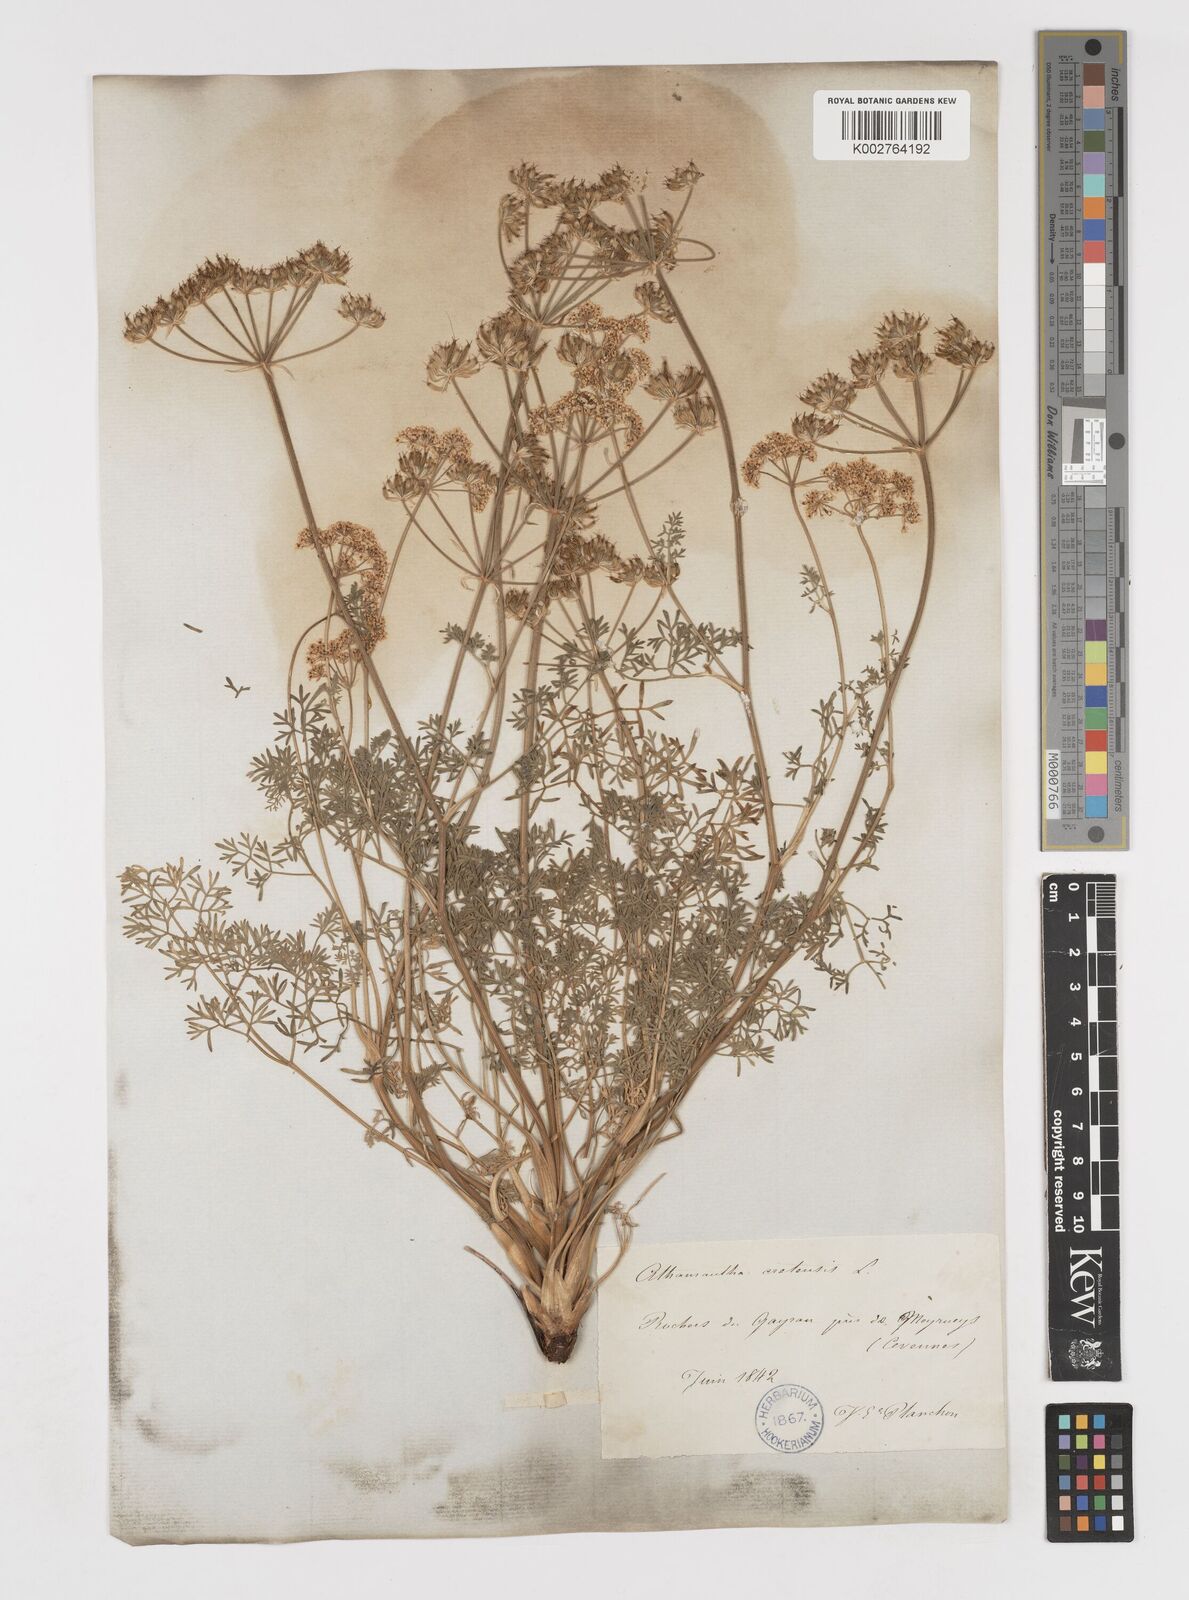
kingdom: Plantae
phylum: Tracheophyta
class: Magnoliopsida
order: Apiales
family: Apiaceae
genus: Athamanta
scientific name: Athamanta cretensis
